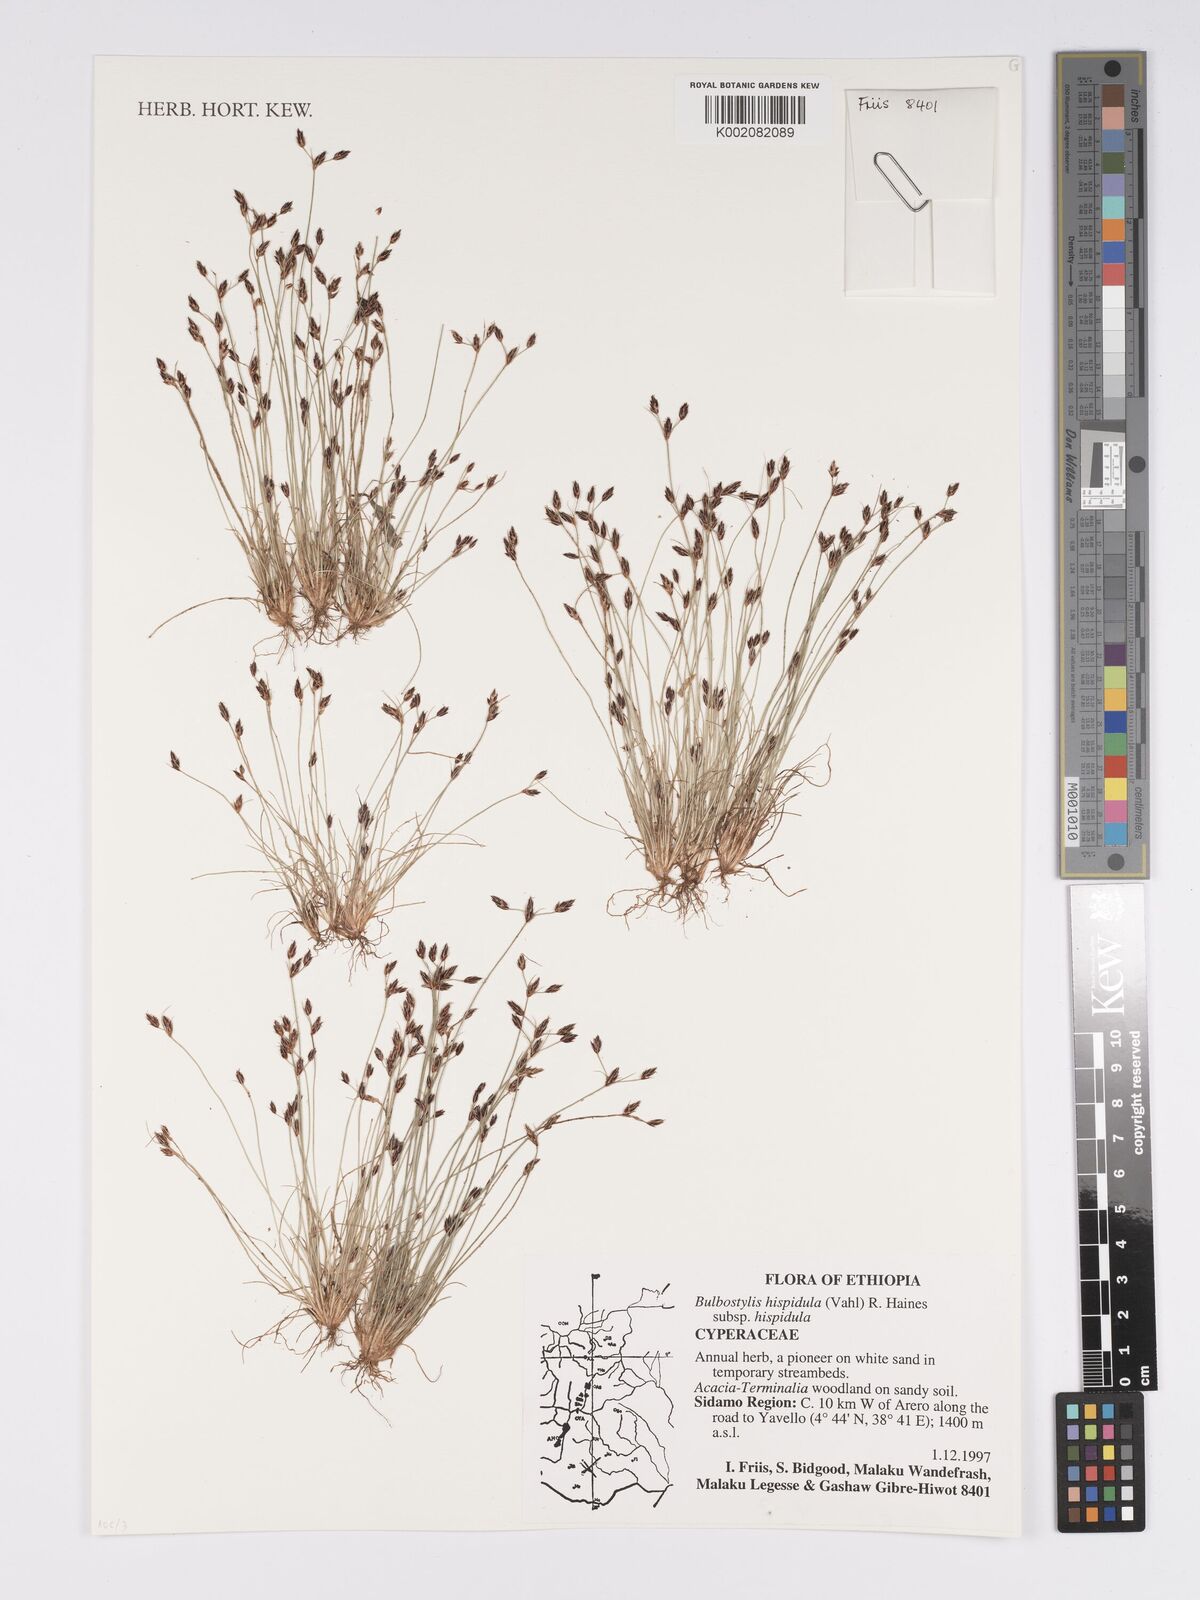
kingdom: Plantae
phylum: Tracheophyta
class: Liliopsida
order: Poales
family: Cyperaceae
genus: Bulbostylis
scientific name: Bulbostylis hispidula
